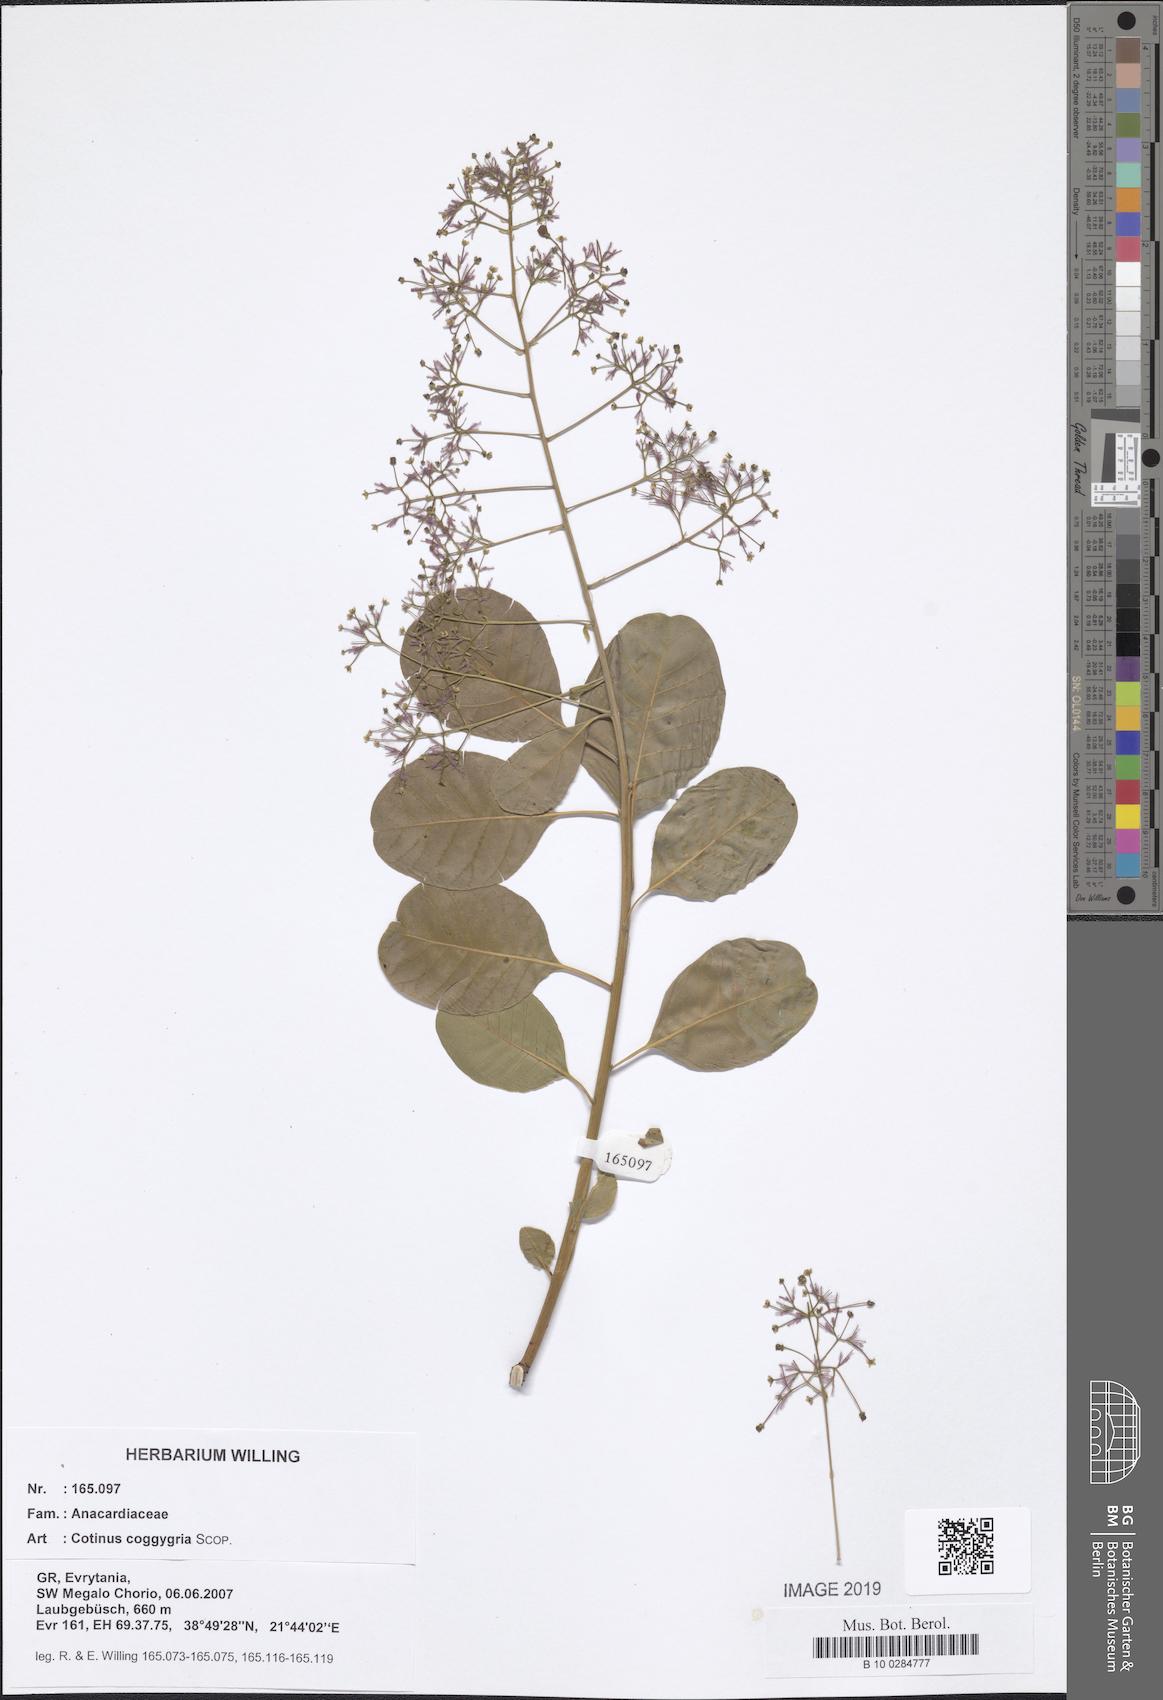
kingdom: Plantae
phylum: Tracheophyta
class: Magnoliopsida
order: Sapindales
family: Anacardiaceae
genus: Cotinus
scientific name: Cotinus coggygria
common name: Smoke-tree
